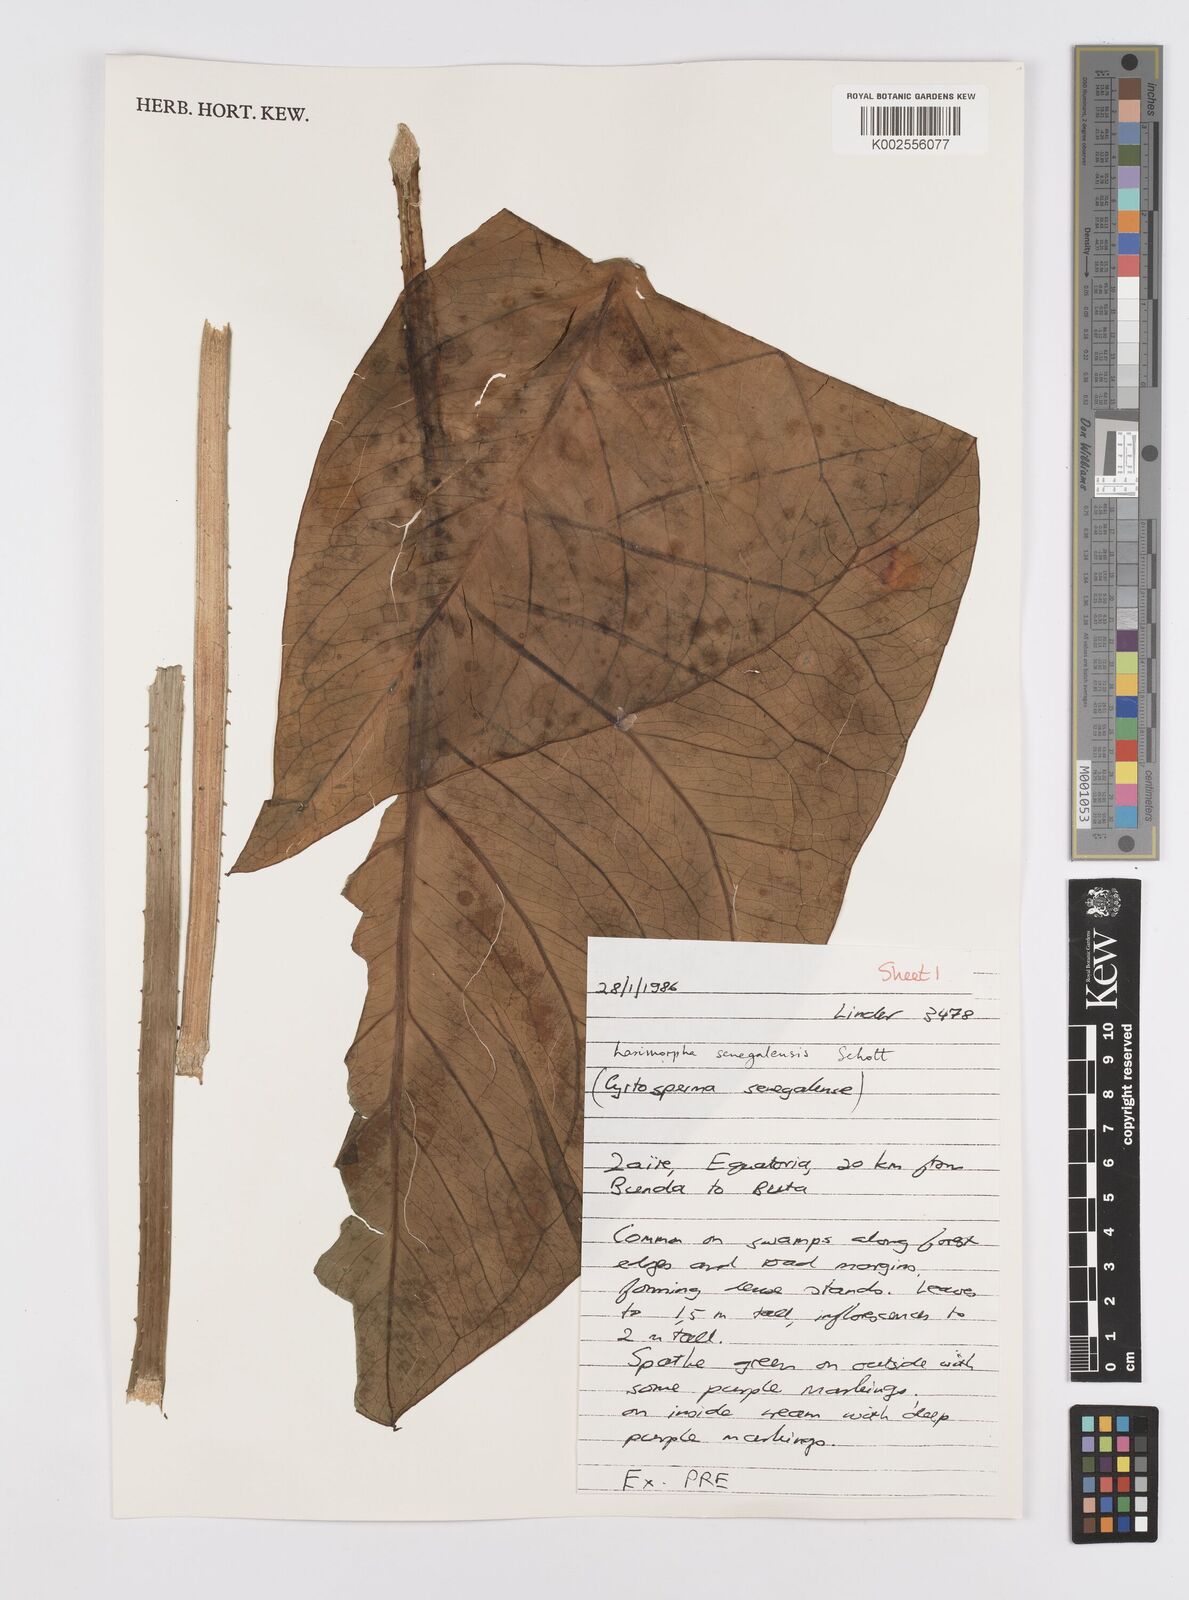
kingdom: Plantae
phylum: Tracheophyta
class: Liliopsida
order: Alismatales
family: Araceae
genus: Lasimorpha
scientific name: Lasimorpha senegalensis
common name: Swamp arum
